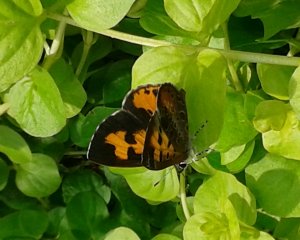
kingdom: Animalia
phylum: Arthropoda
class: Insecta
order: Lepidoptera
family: Lycaenidae
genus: Feniseca
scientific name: Feniseca tarquinius
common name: Harvester
